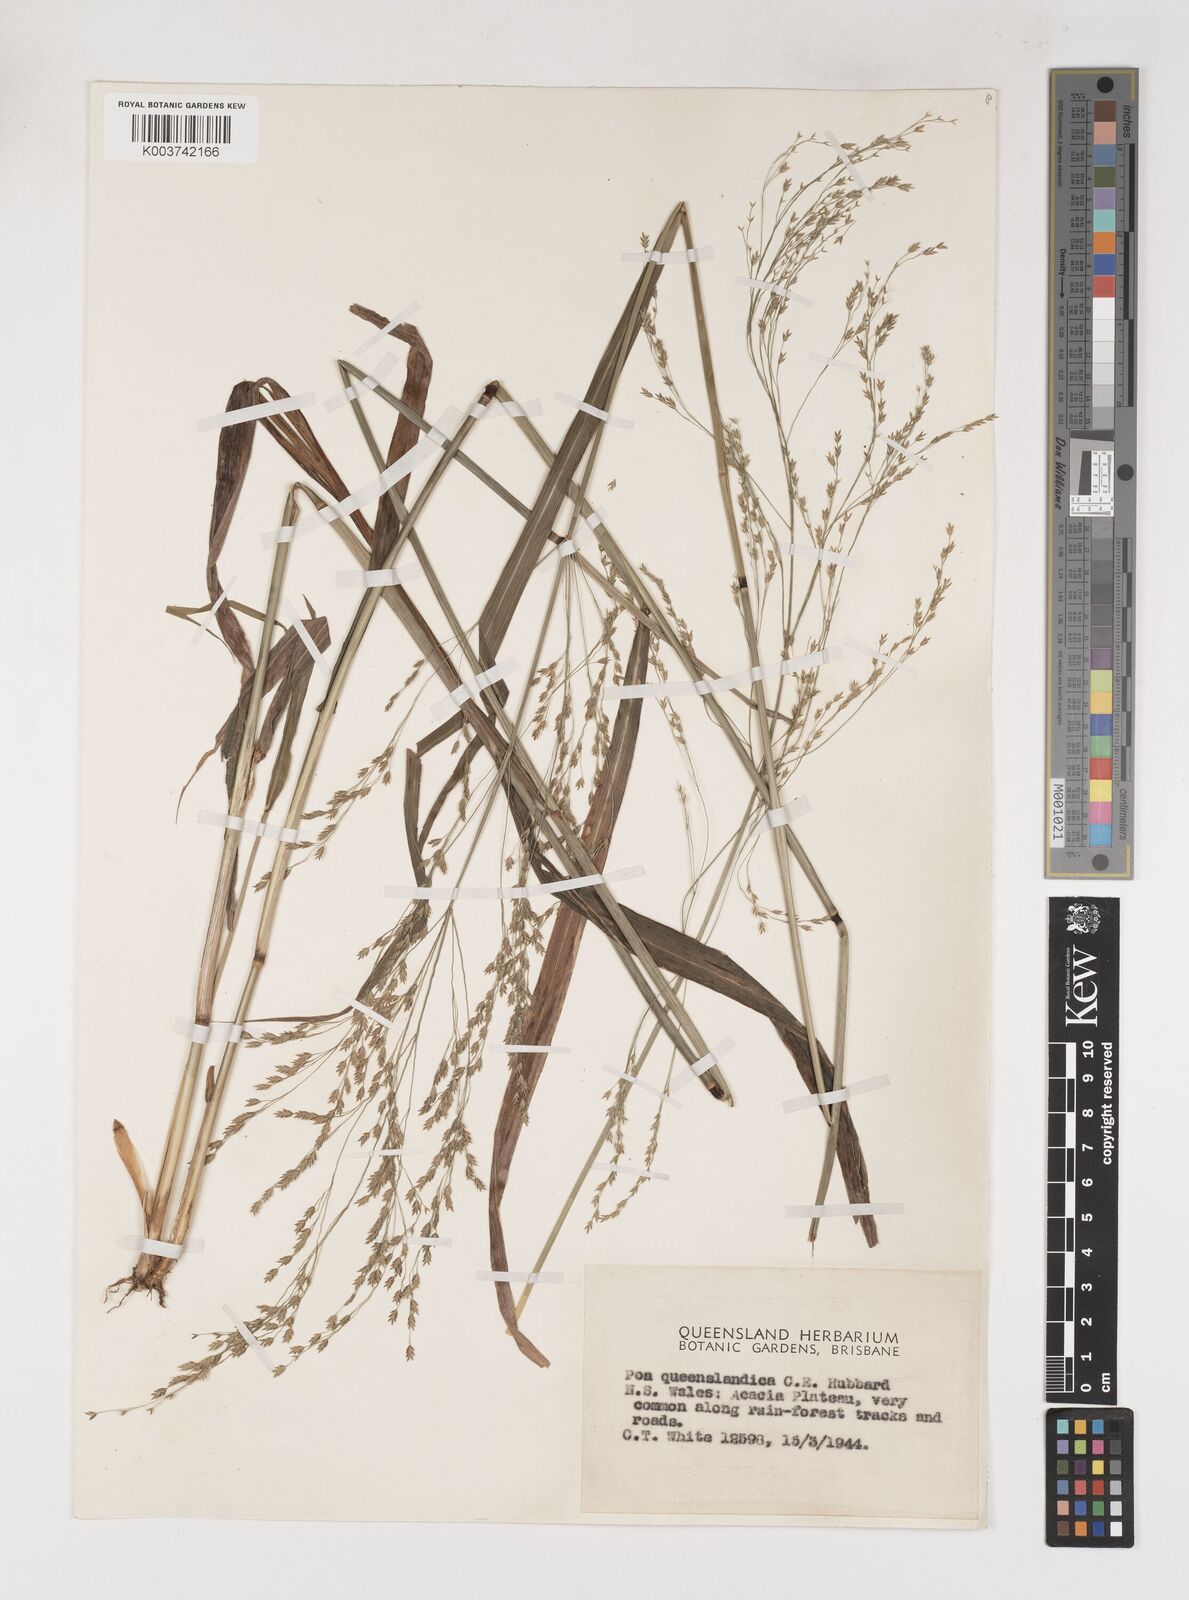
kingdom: Plantae
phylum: Tracheophyta
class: Liliopsida
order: Poales
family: Poaceae
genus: Sylvipoa
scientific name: Sylvipoa queenslandica
